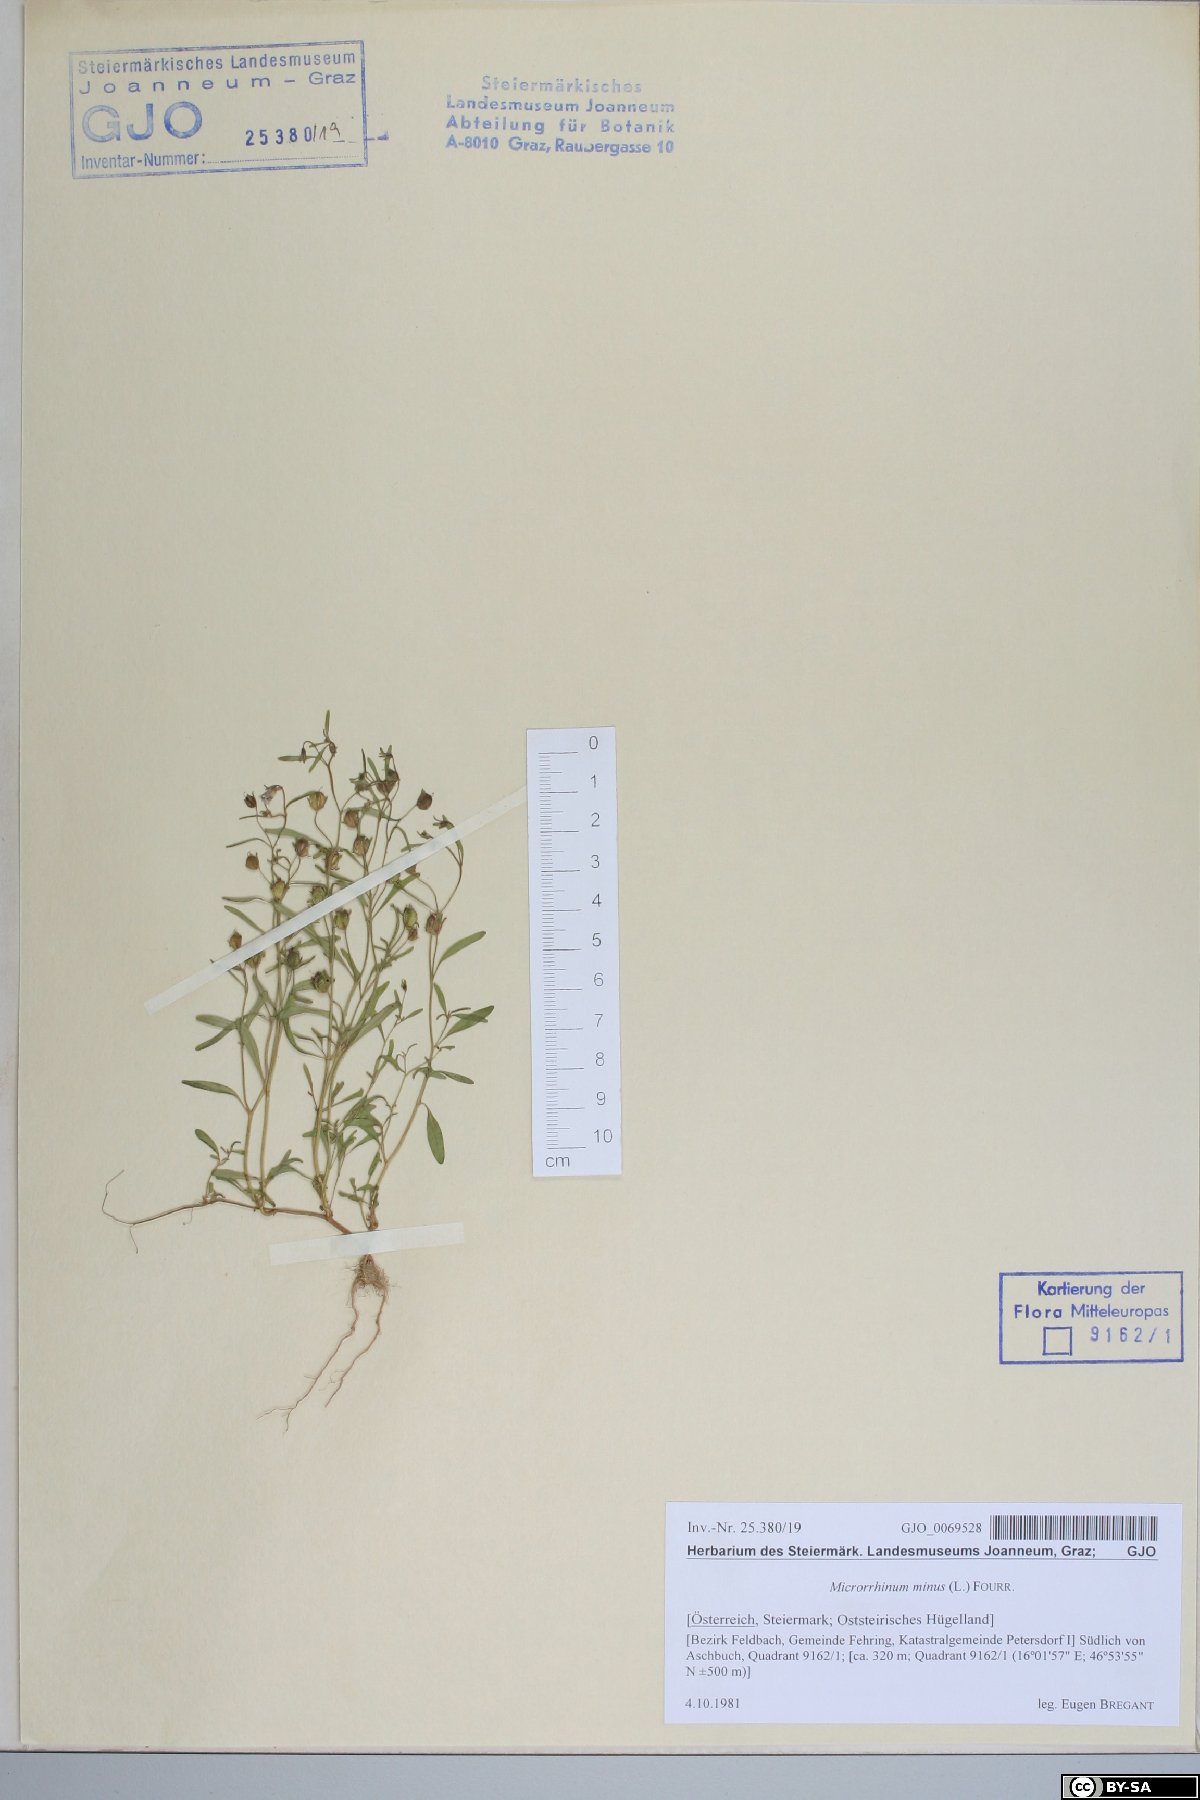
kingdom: Plantae
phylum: Tracheophyta
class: Magnoliopsida
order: Lamiales
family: Plantaginaceae
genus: Chaenorhinum
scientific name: Chaenorhinum minus
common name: Dwarf snapdragon
